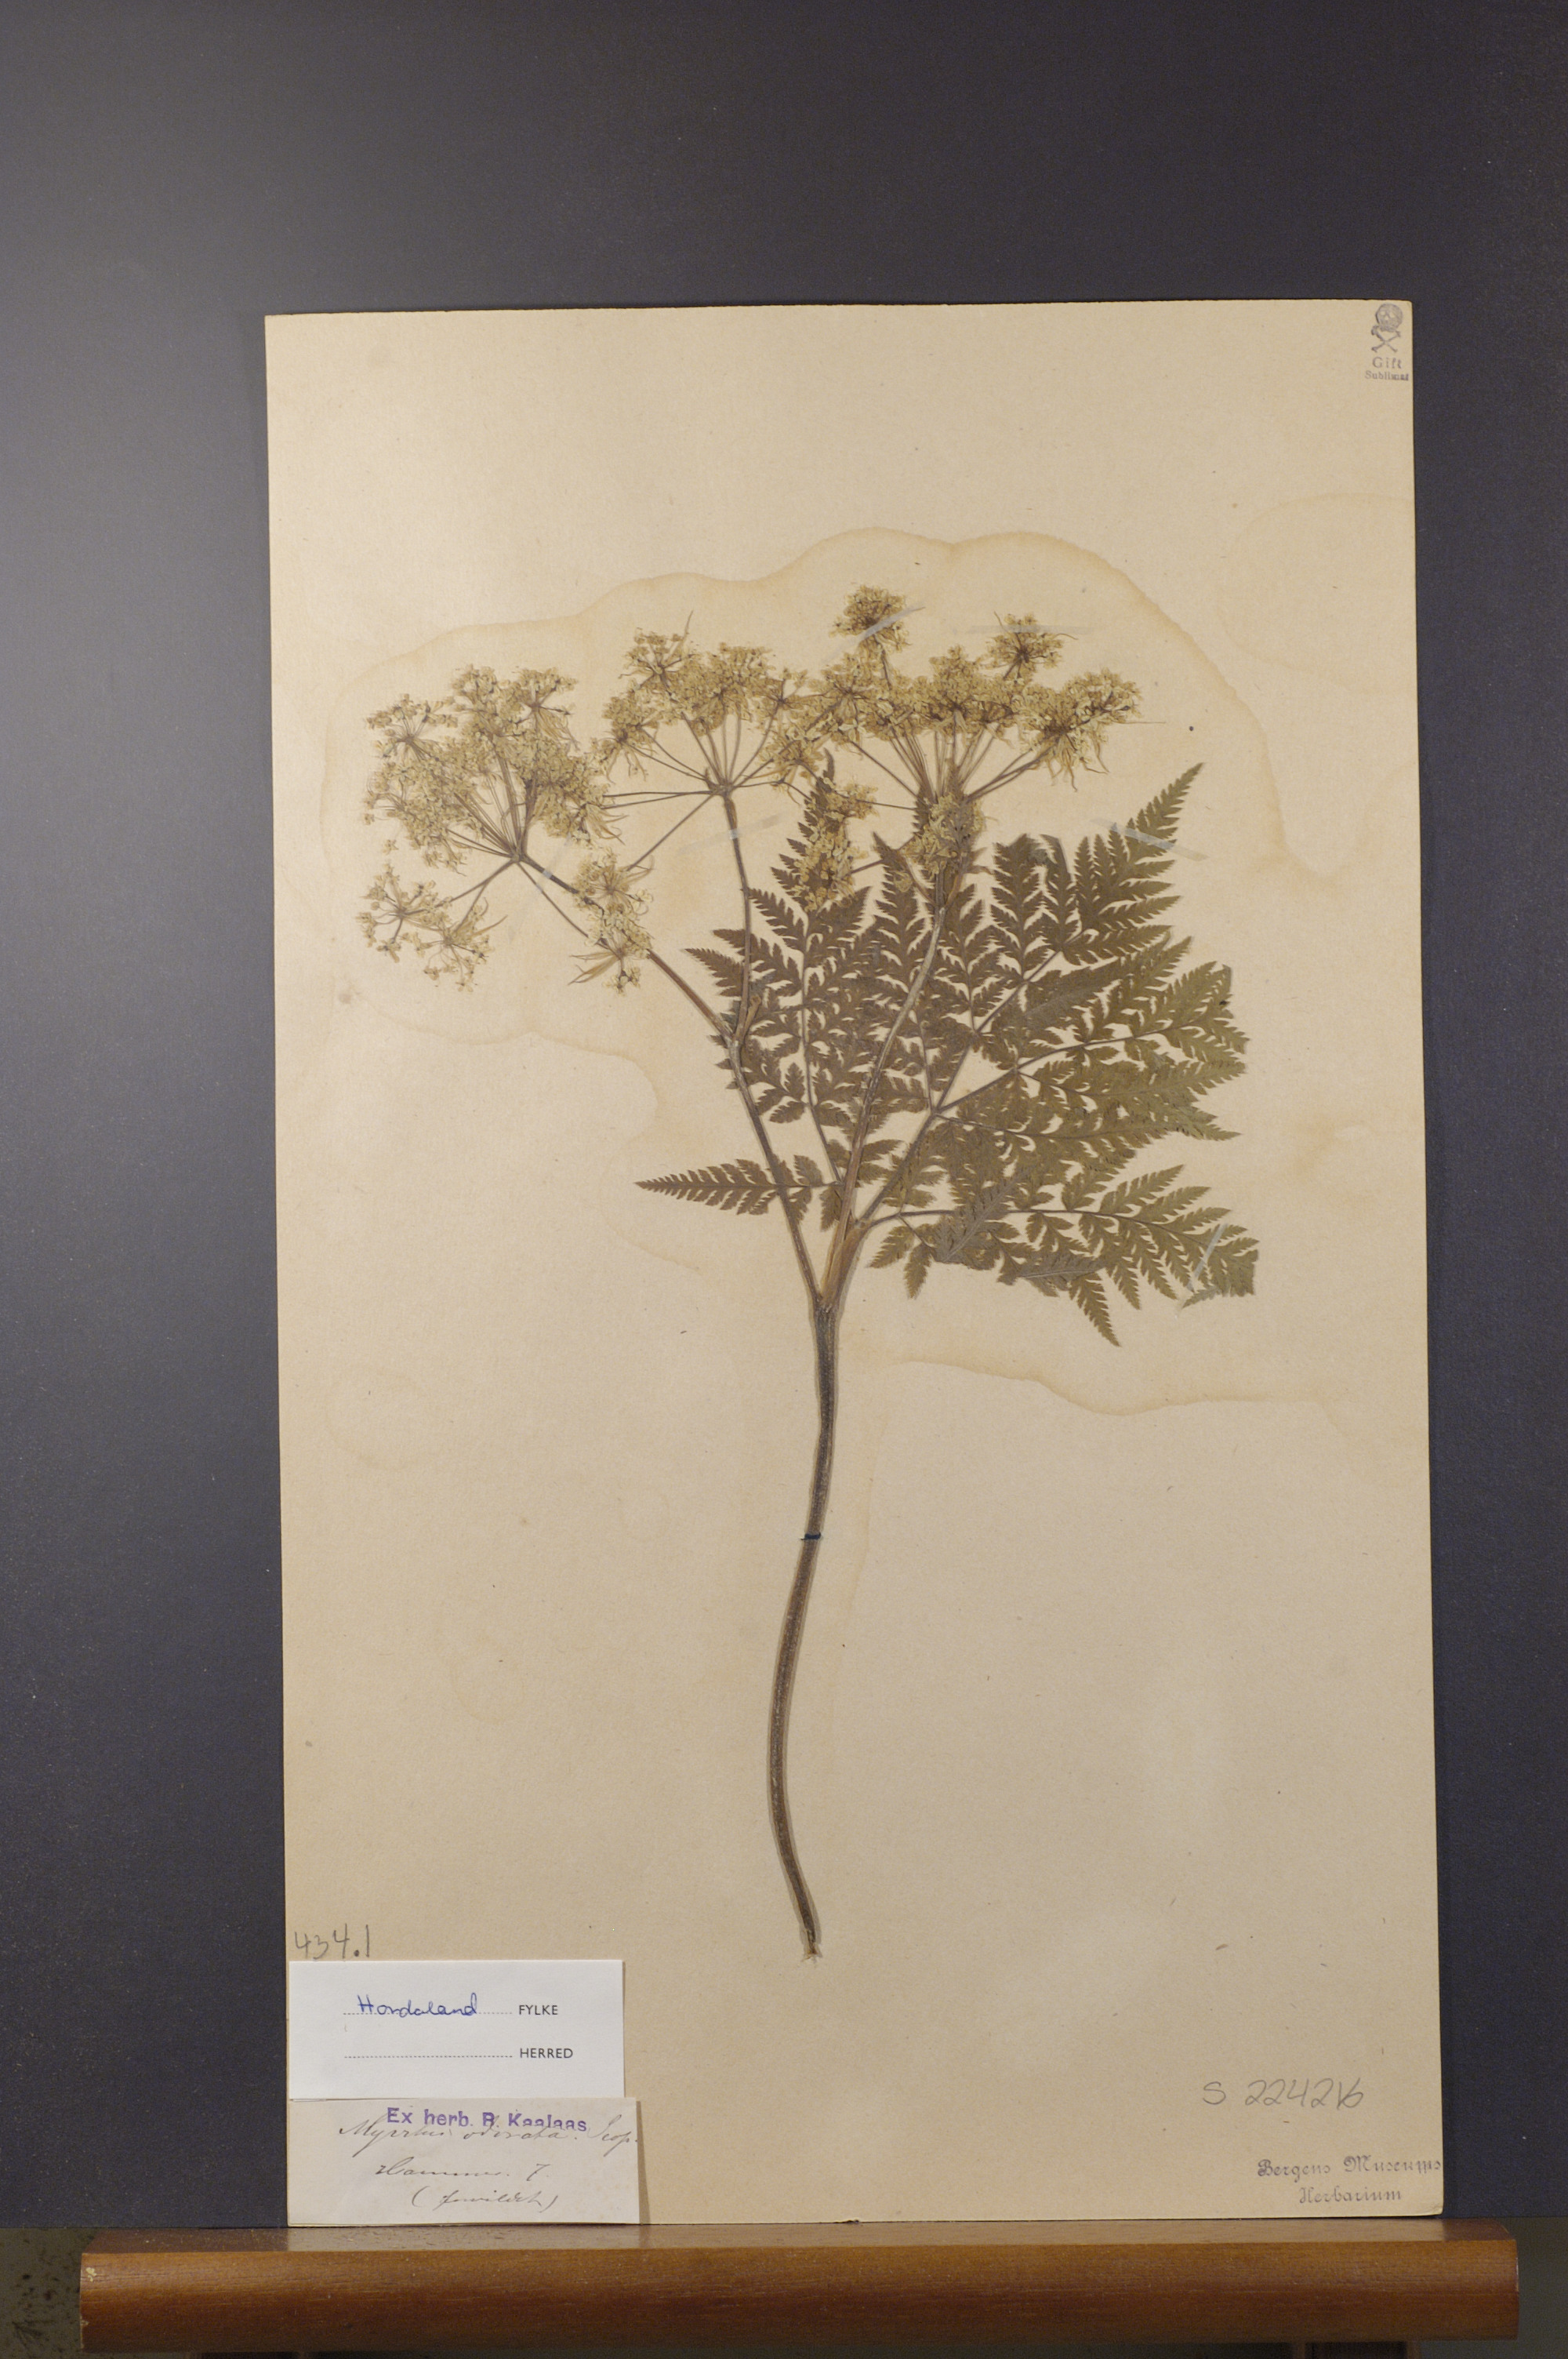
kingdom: Plantae
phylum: Tracheophyta
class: Magnoliopsida
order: Apiales
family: Apiaceae
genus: Myrrhis
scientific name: Myrrhis odorata
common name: Sweet cicely
